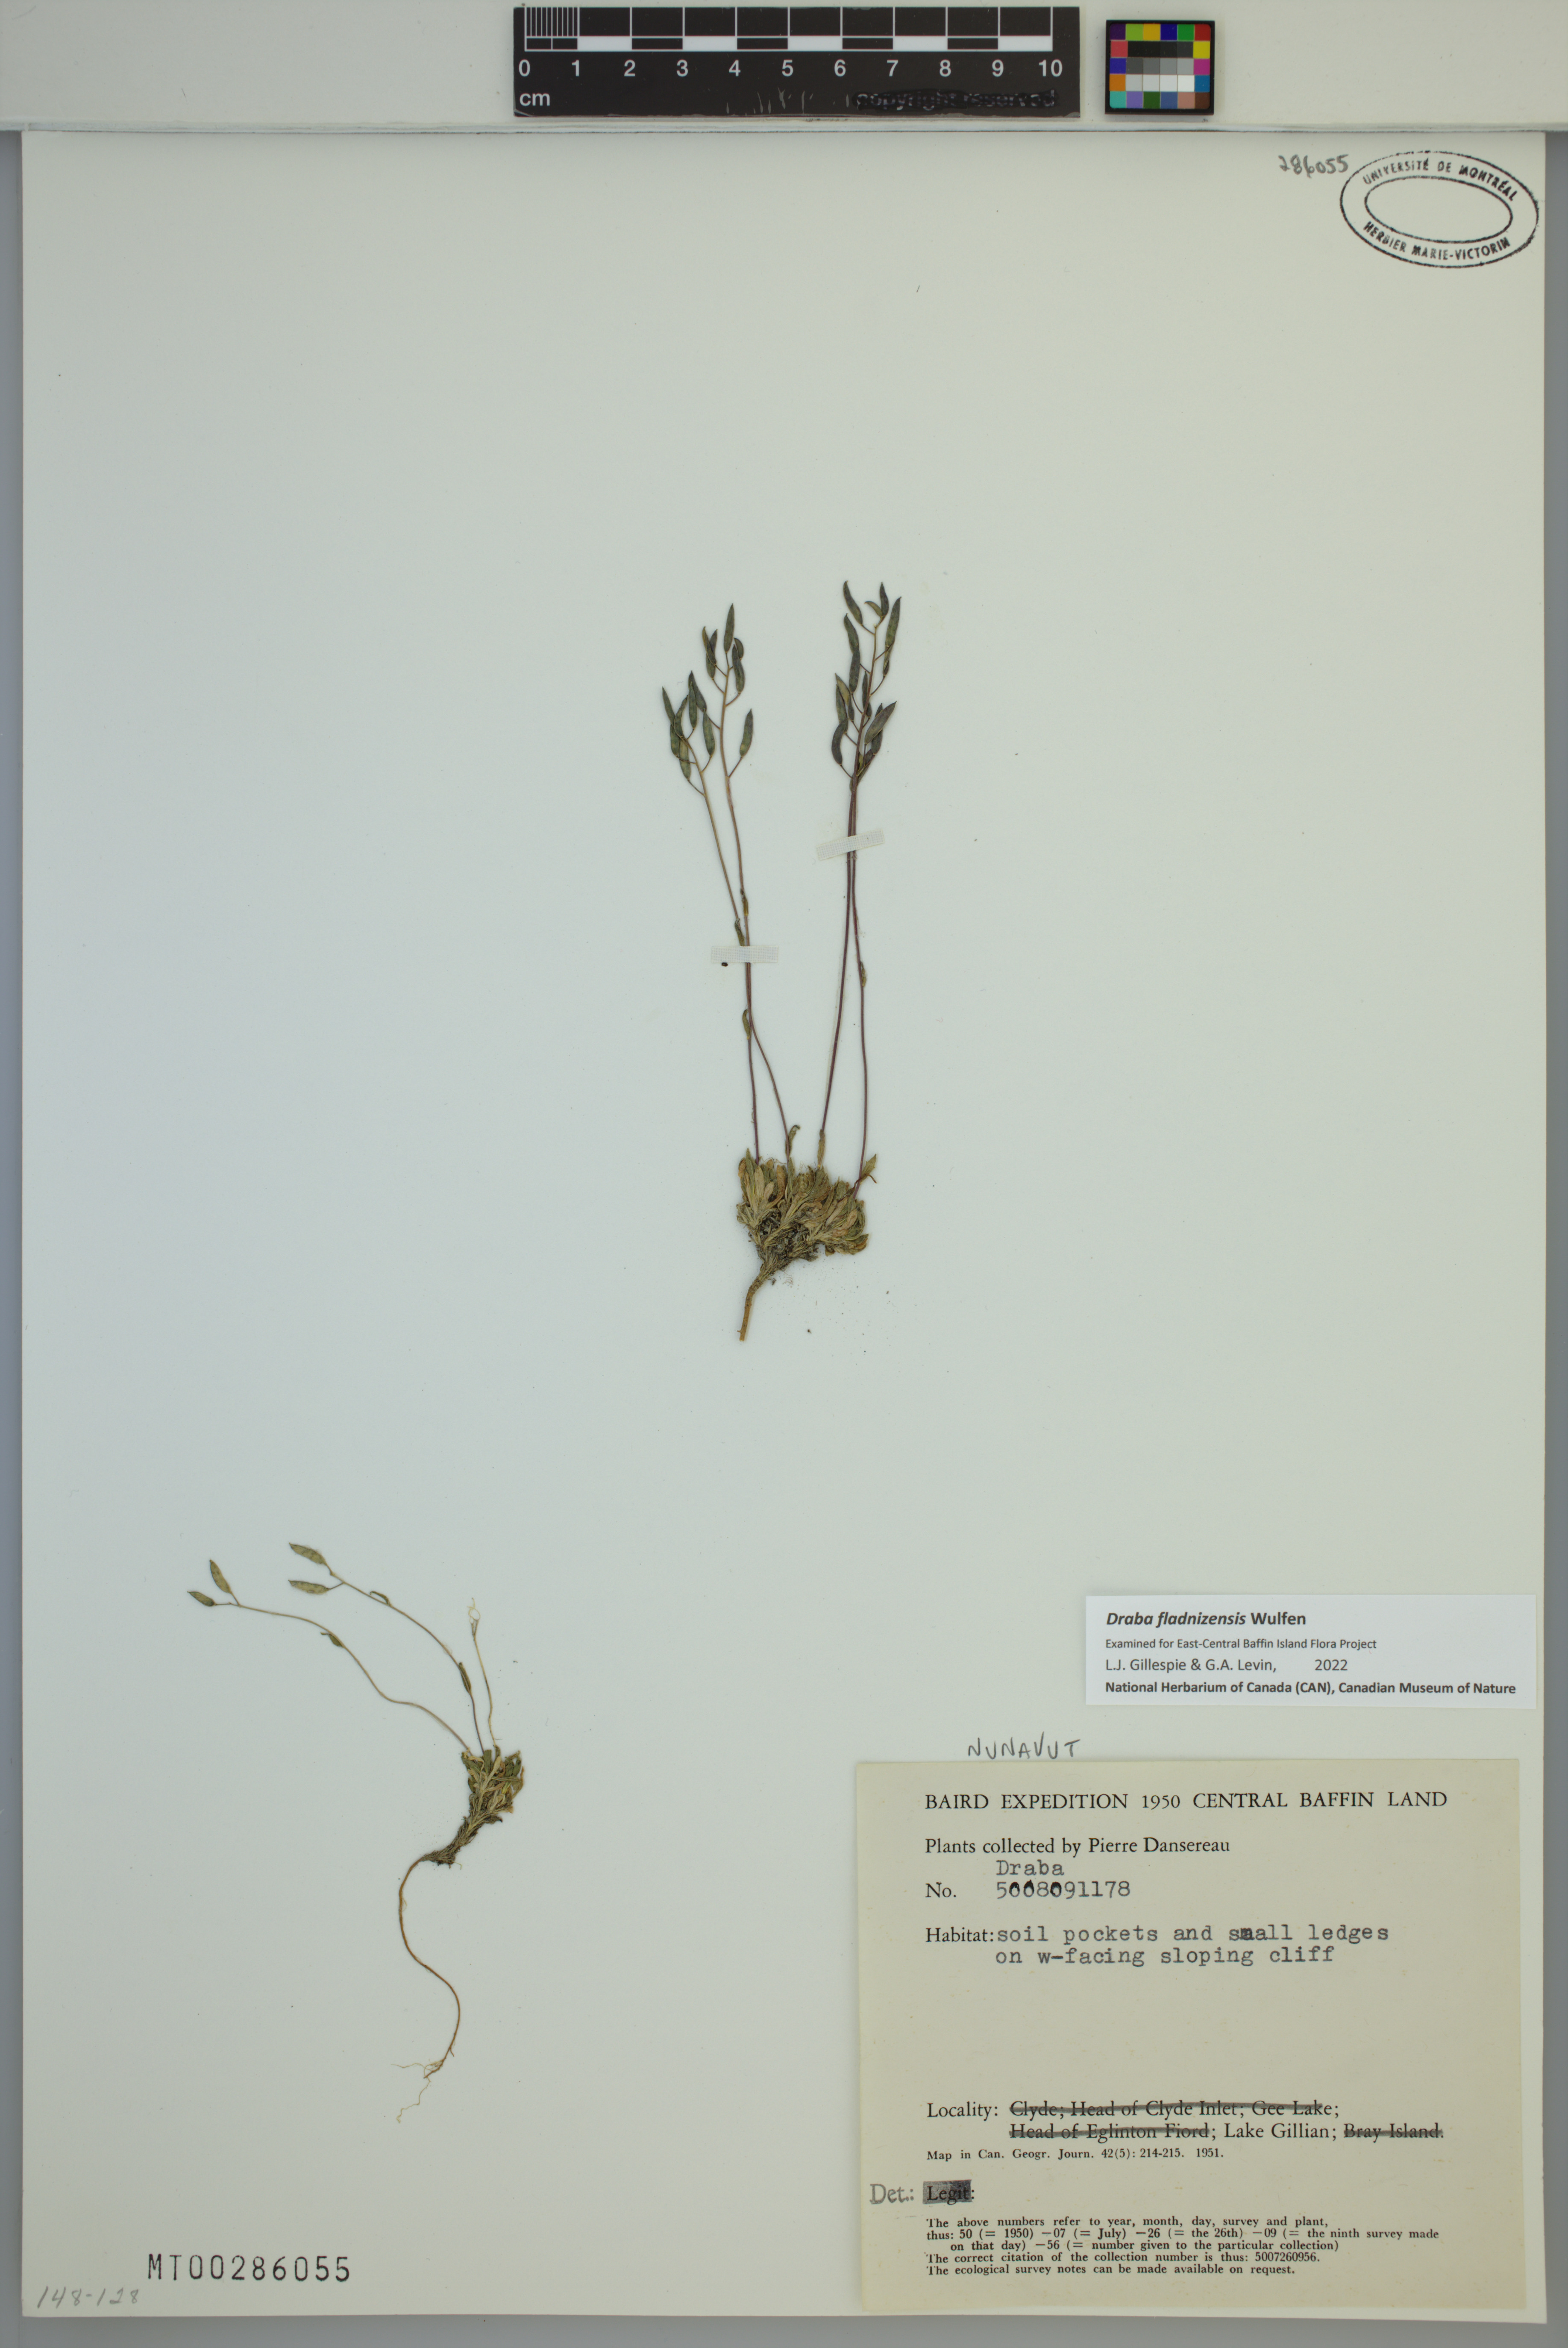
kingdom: Plantae
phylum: Tracheophyta
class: Magnoliopsida
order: Brassicales
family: Brassicaceae
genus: Draba
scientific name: Draba fladnizensis
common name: Austrian draba
